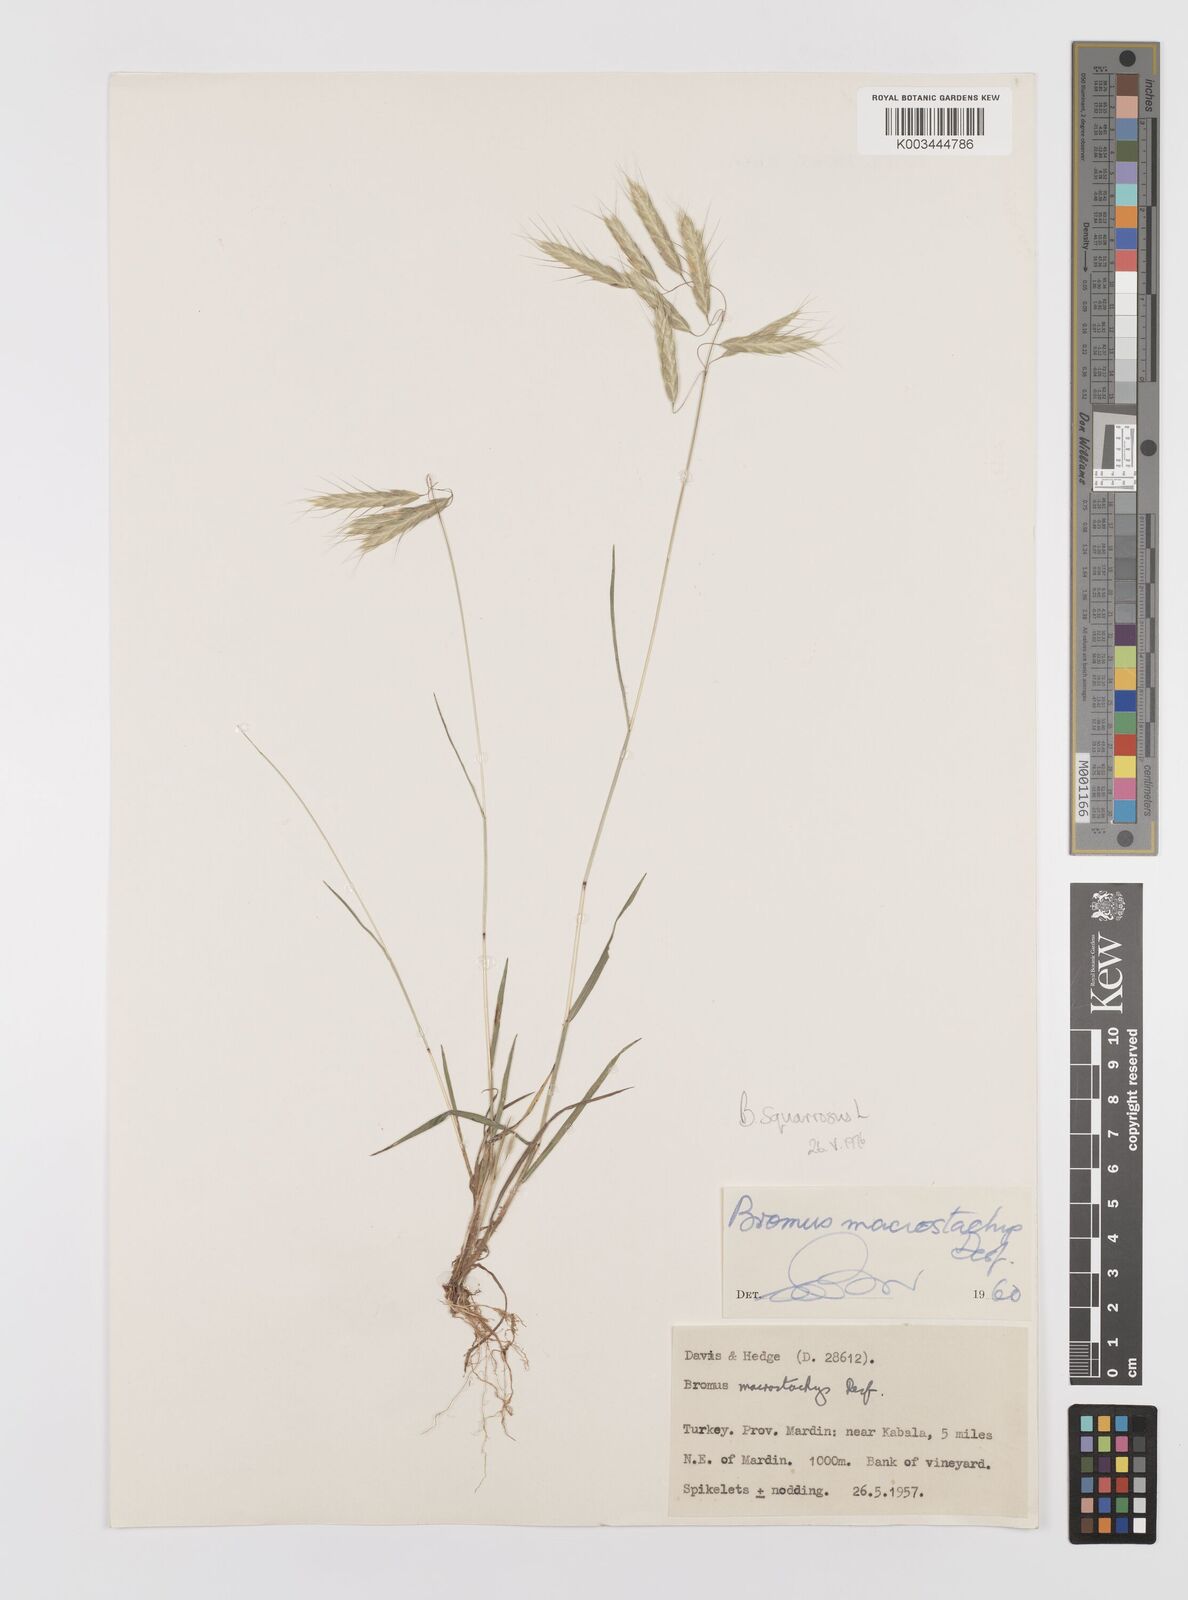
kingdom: Plantae
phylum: Tracheophyta
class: Liliopsida
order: Poales
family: Poaceae
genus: Bromus
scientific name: Bromus squarrosus
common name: Corn brome
